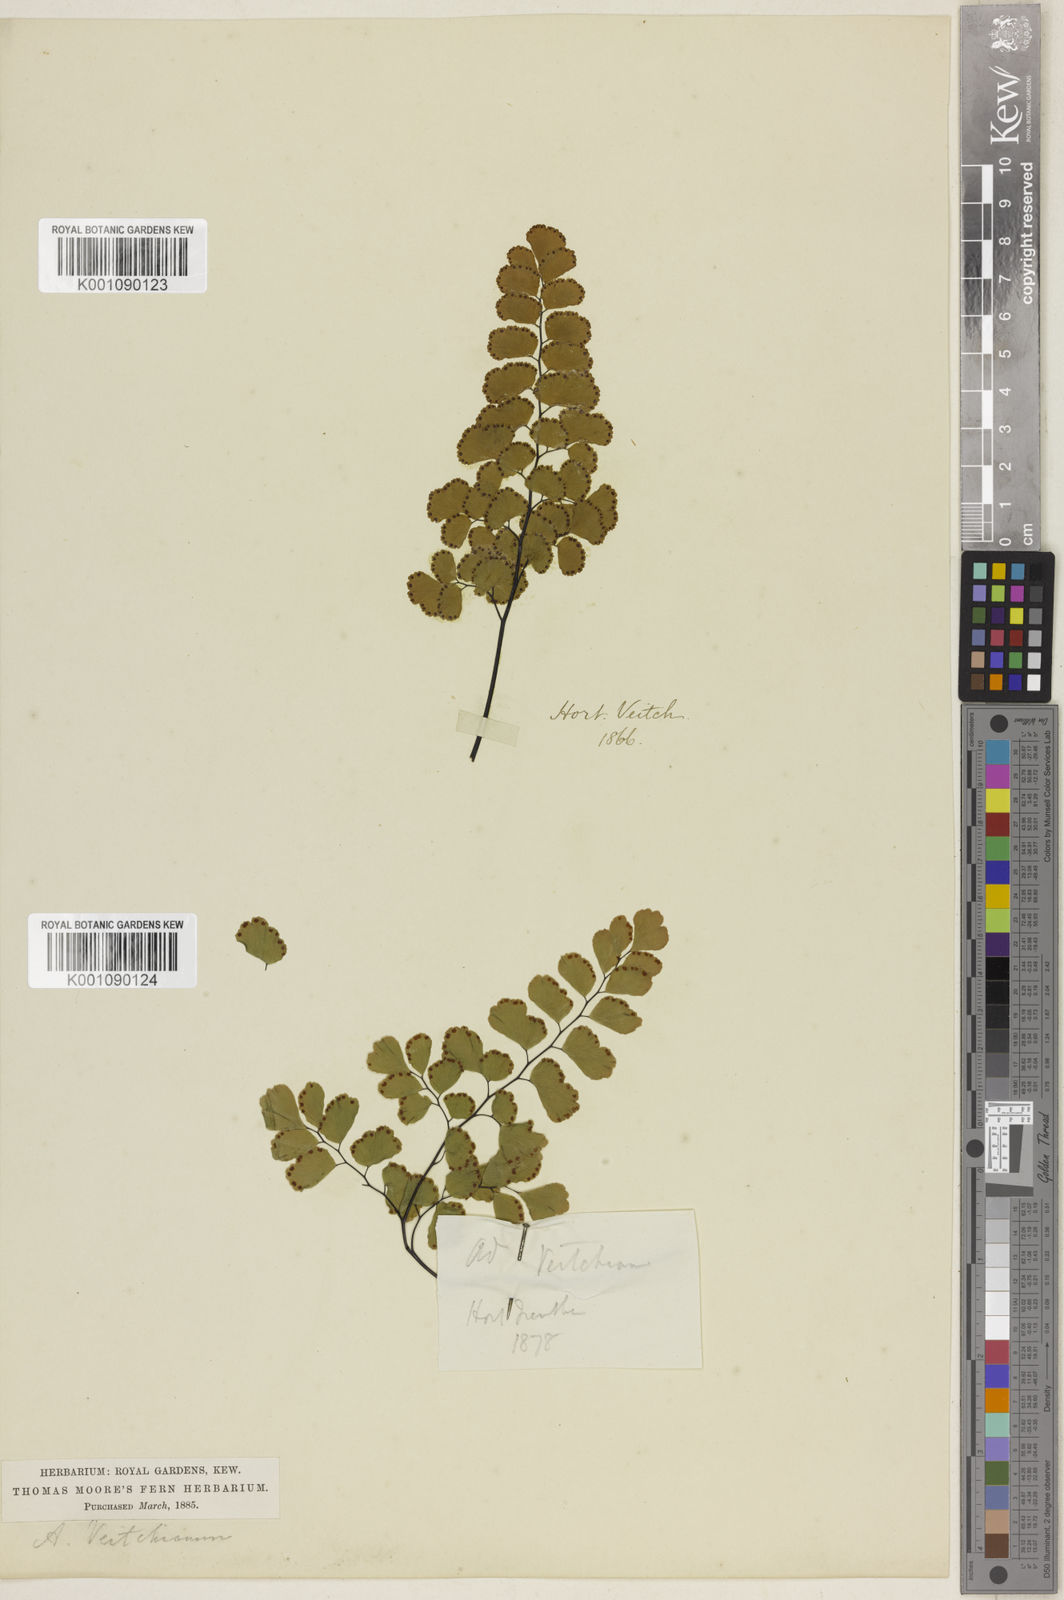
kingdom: Plantae
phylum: Tracheophyta
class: Polypodiopsida
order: Polypodiales
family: Pteridaceae
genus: Adiantum
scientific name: Adiantum ruizianum
